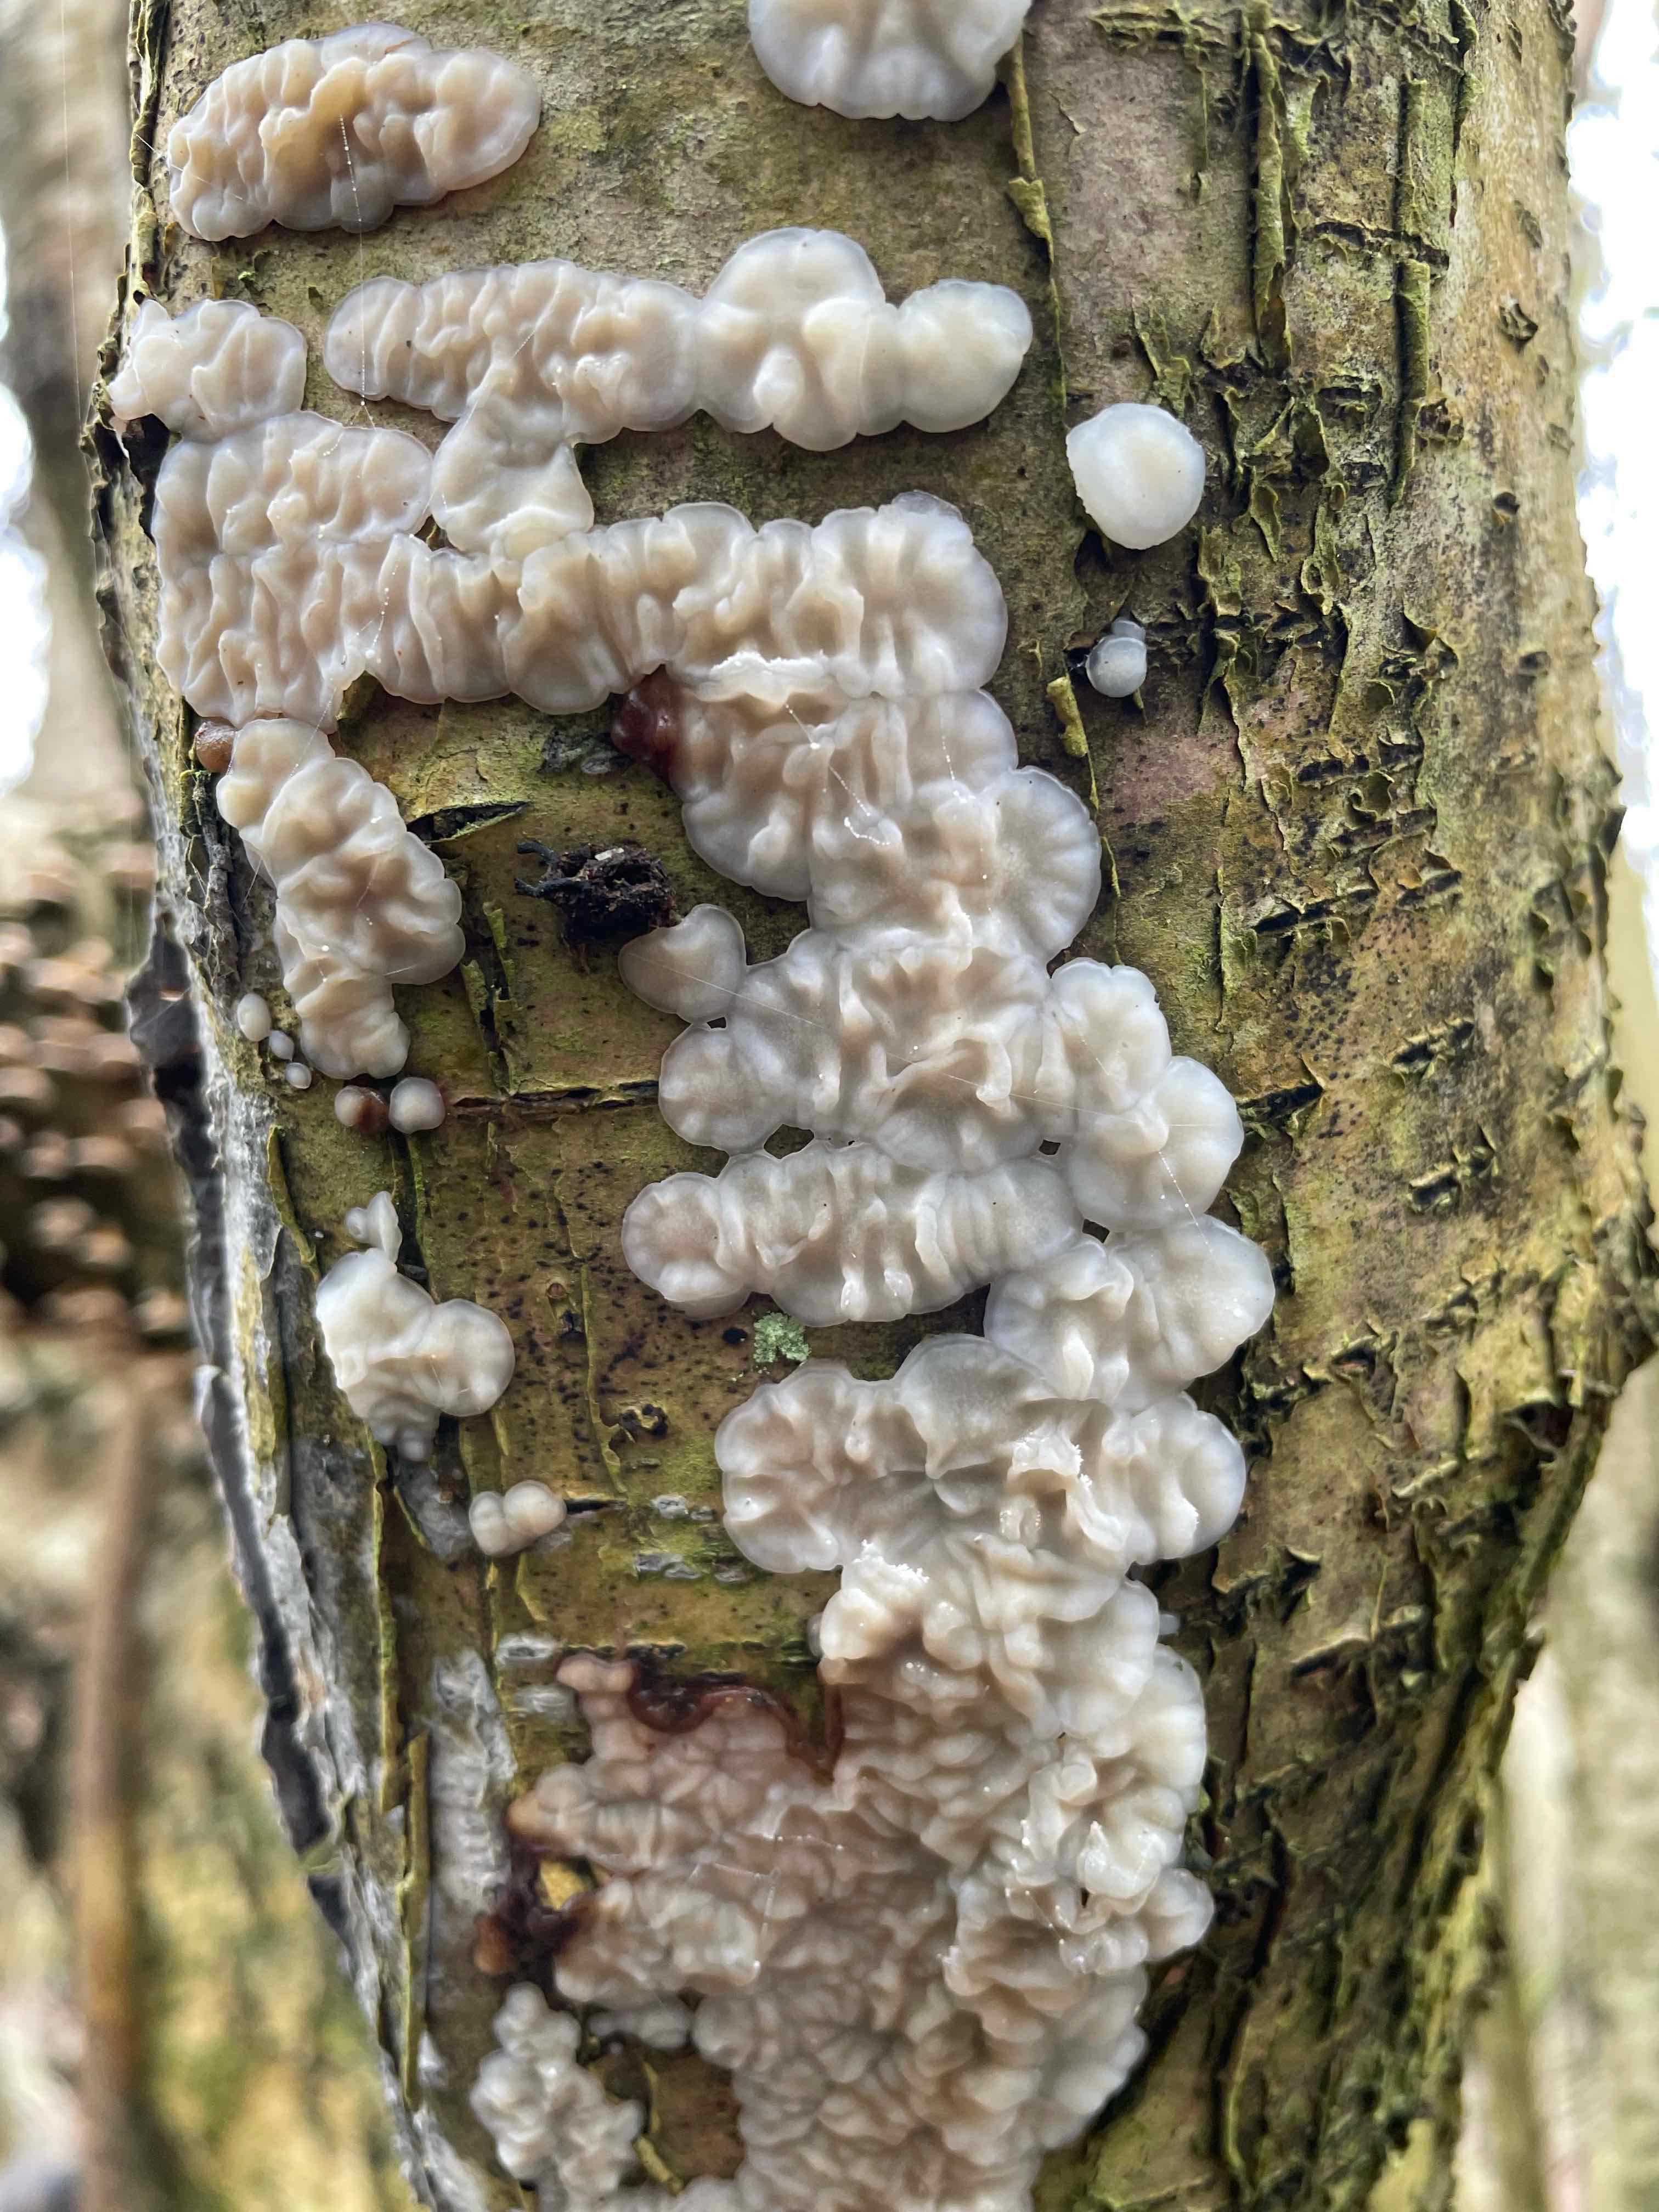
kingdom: Fungi
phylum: Basidiomycota
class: Agaricomycetes
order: Auriculariales
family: Auriculariaceae
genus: Exidia
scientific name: Exidia thuretiana
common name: hvidlig bævretop
